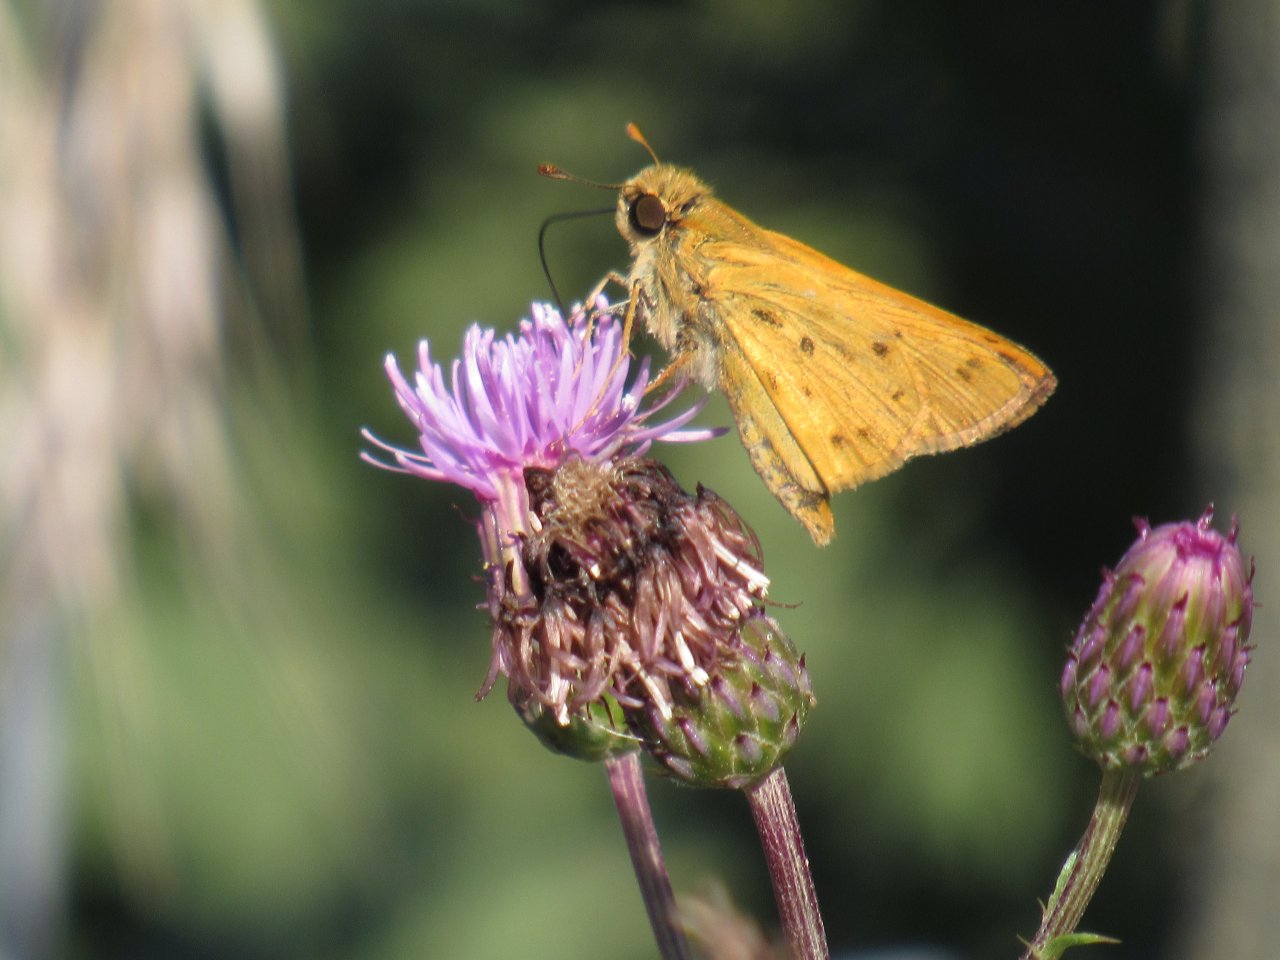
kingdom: Animalia
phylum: Arthropoda
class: Insecta
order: Lepidoptera
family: Hesperiidae
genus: Hylephila
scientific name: Hylephila phyleus
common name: Fiery Skipper
